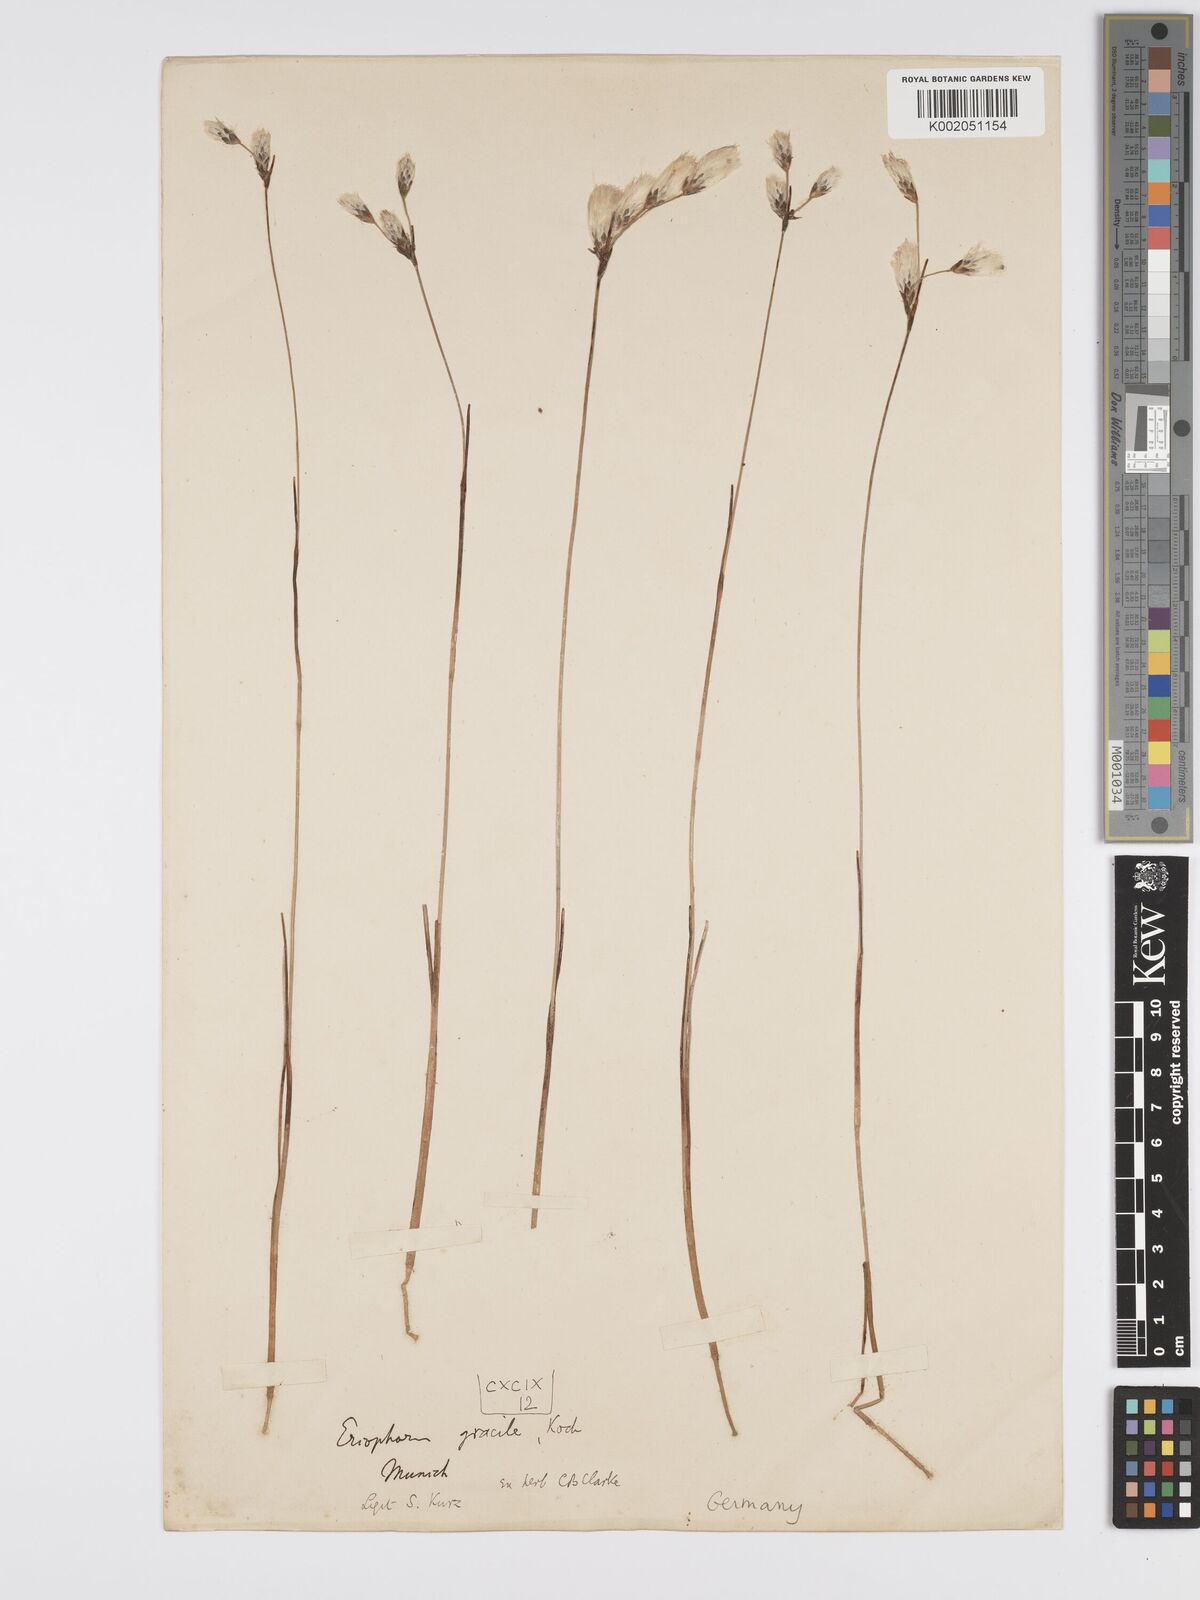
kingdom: Plantae
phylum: Tracheophyta
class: Liliopsida
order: Poales
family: Cyperaceae
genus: Eriophorum
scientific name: Eriophorum gracile
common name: Slender cottongrass
